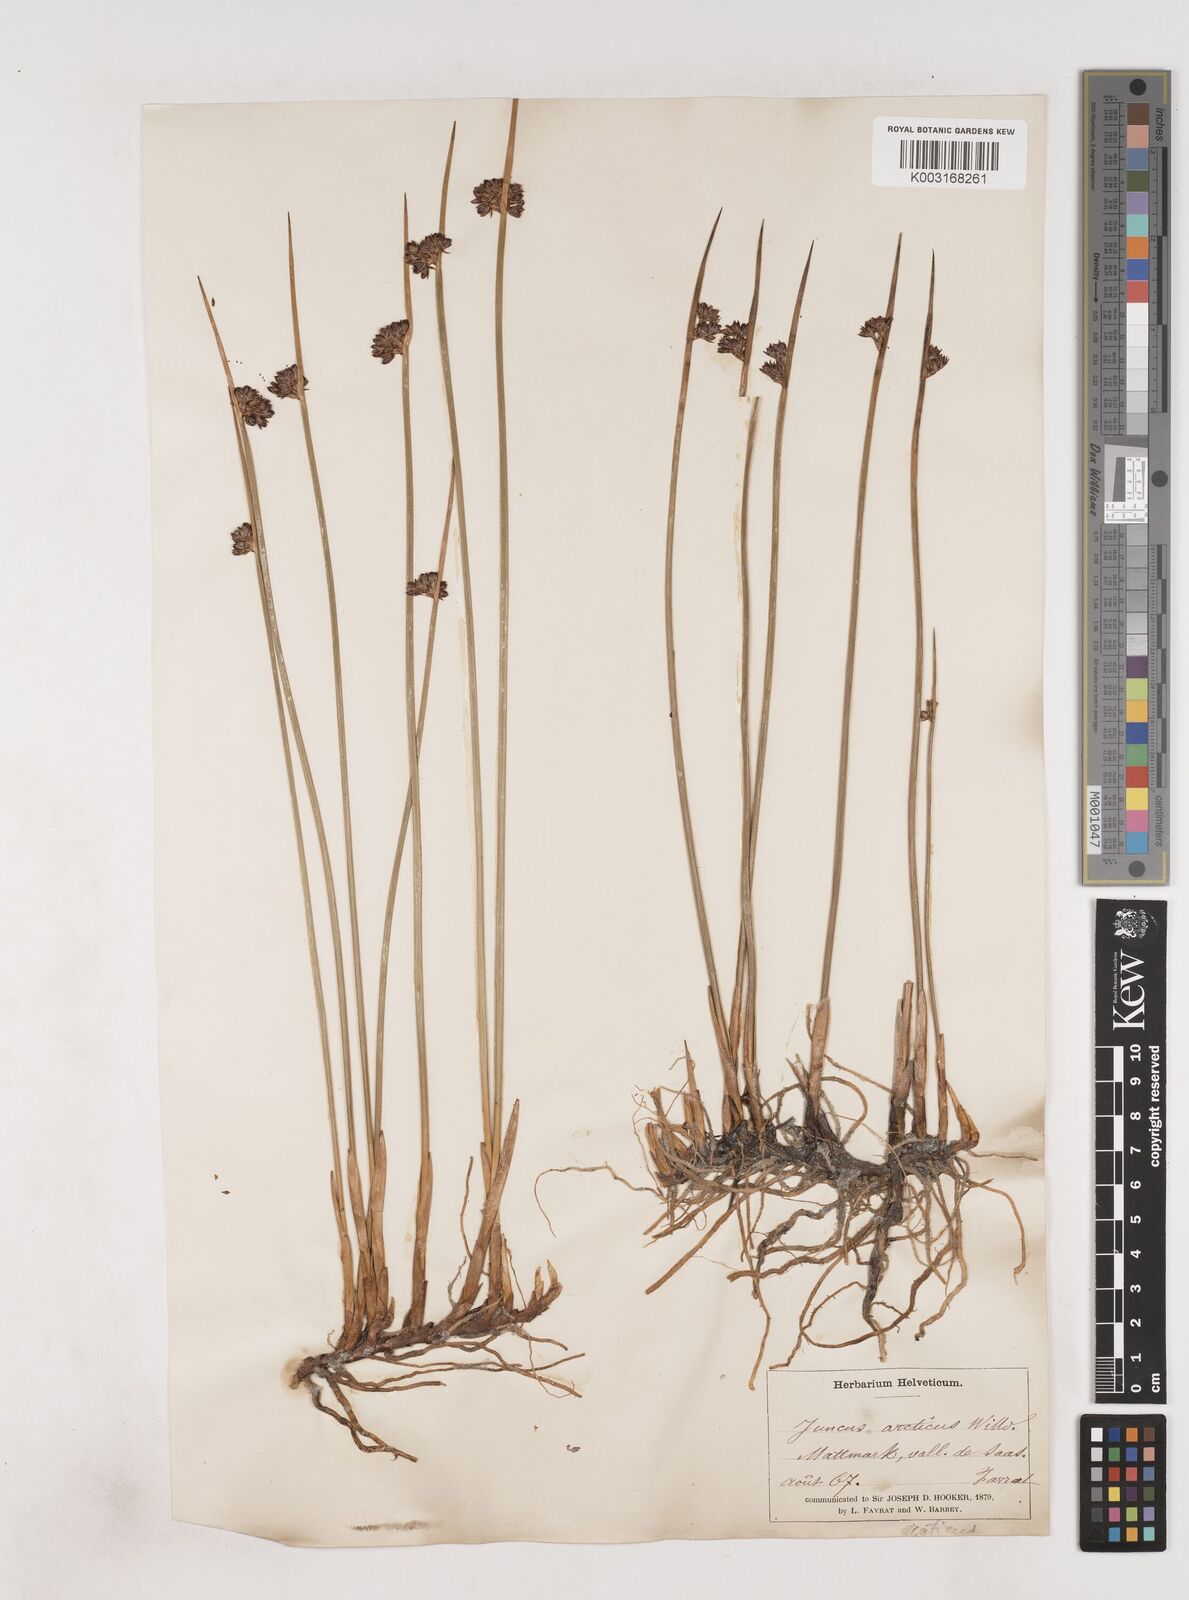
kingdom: Plantae
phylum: Tracheophyta
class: Liliopsida
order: Poales
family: Juncaceae
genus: Juncus
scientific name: Juncus arcticus
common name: Arctic rush
